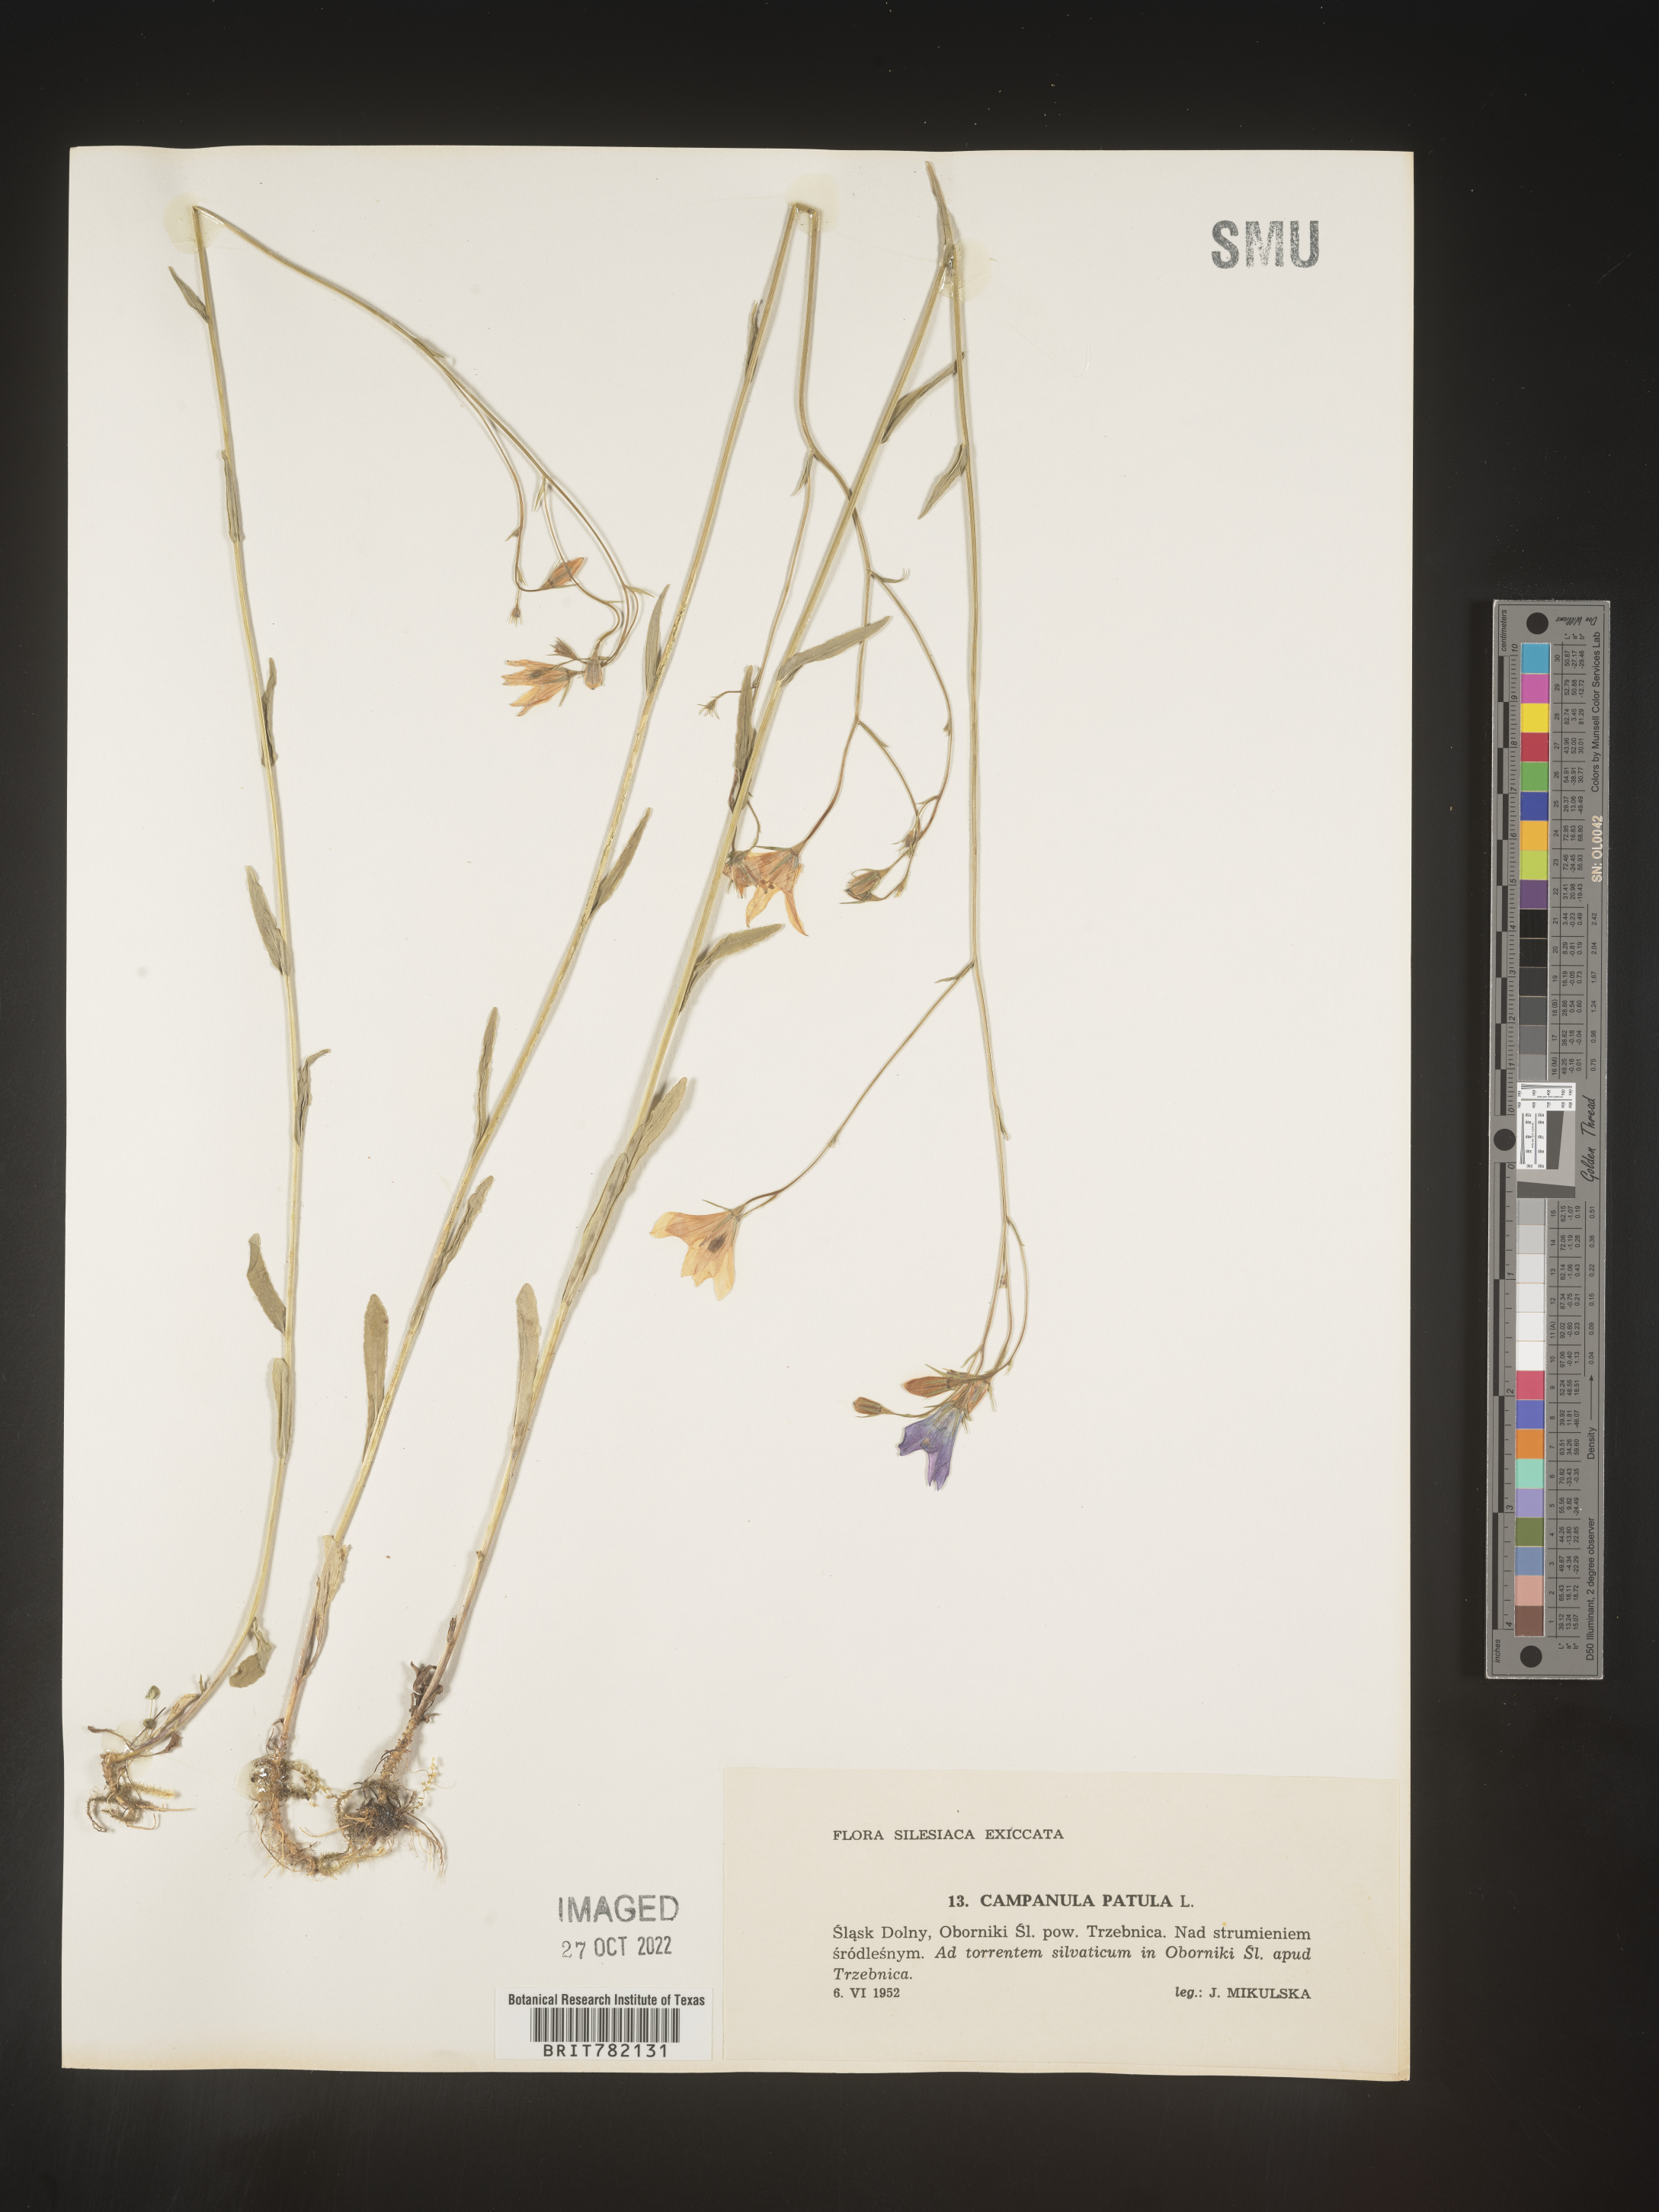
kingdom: Plantae
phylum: Tracheophyta
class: Magnoliopsida
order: Asterales
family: Campanulaceae
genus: Campanula
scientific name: Campanula
